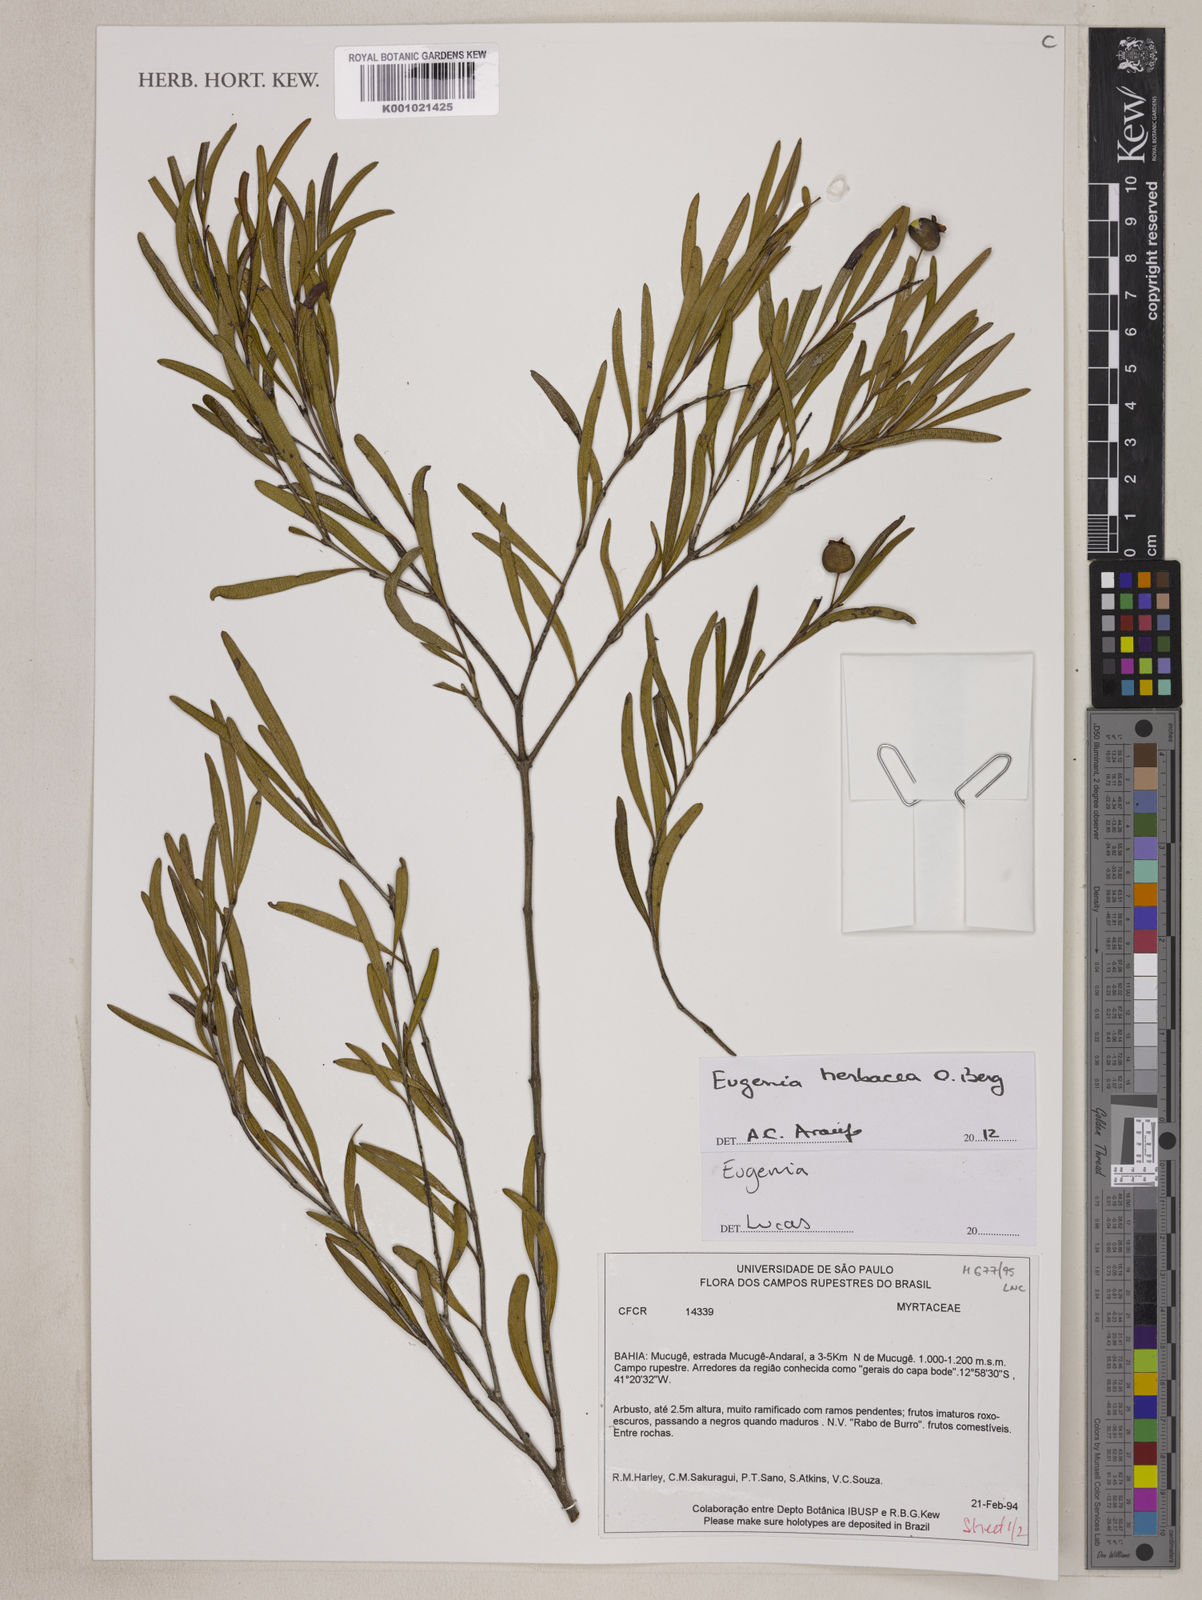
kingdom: Plantae
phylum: Tracheophyta
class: Magnoliopsida
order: Myrtales
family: Myrtaceae
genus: Eugenia
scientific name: Eugenia herbacea
